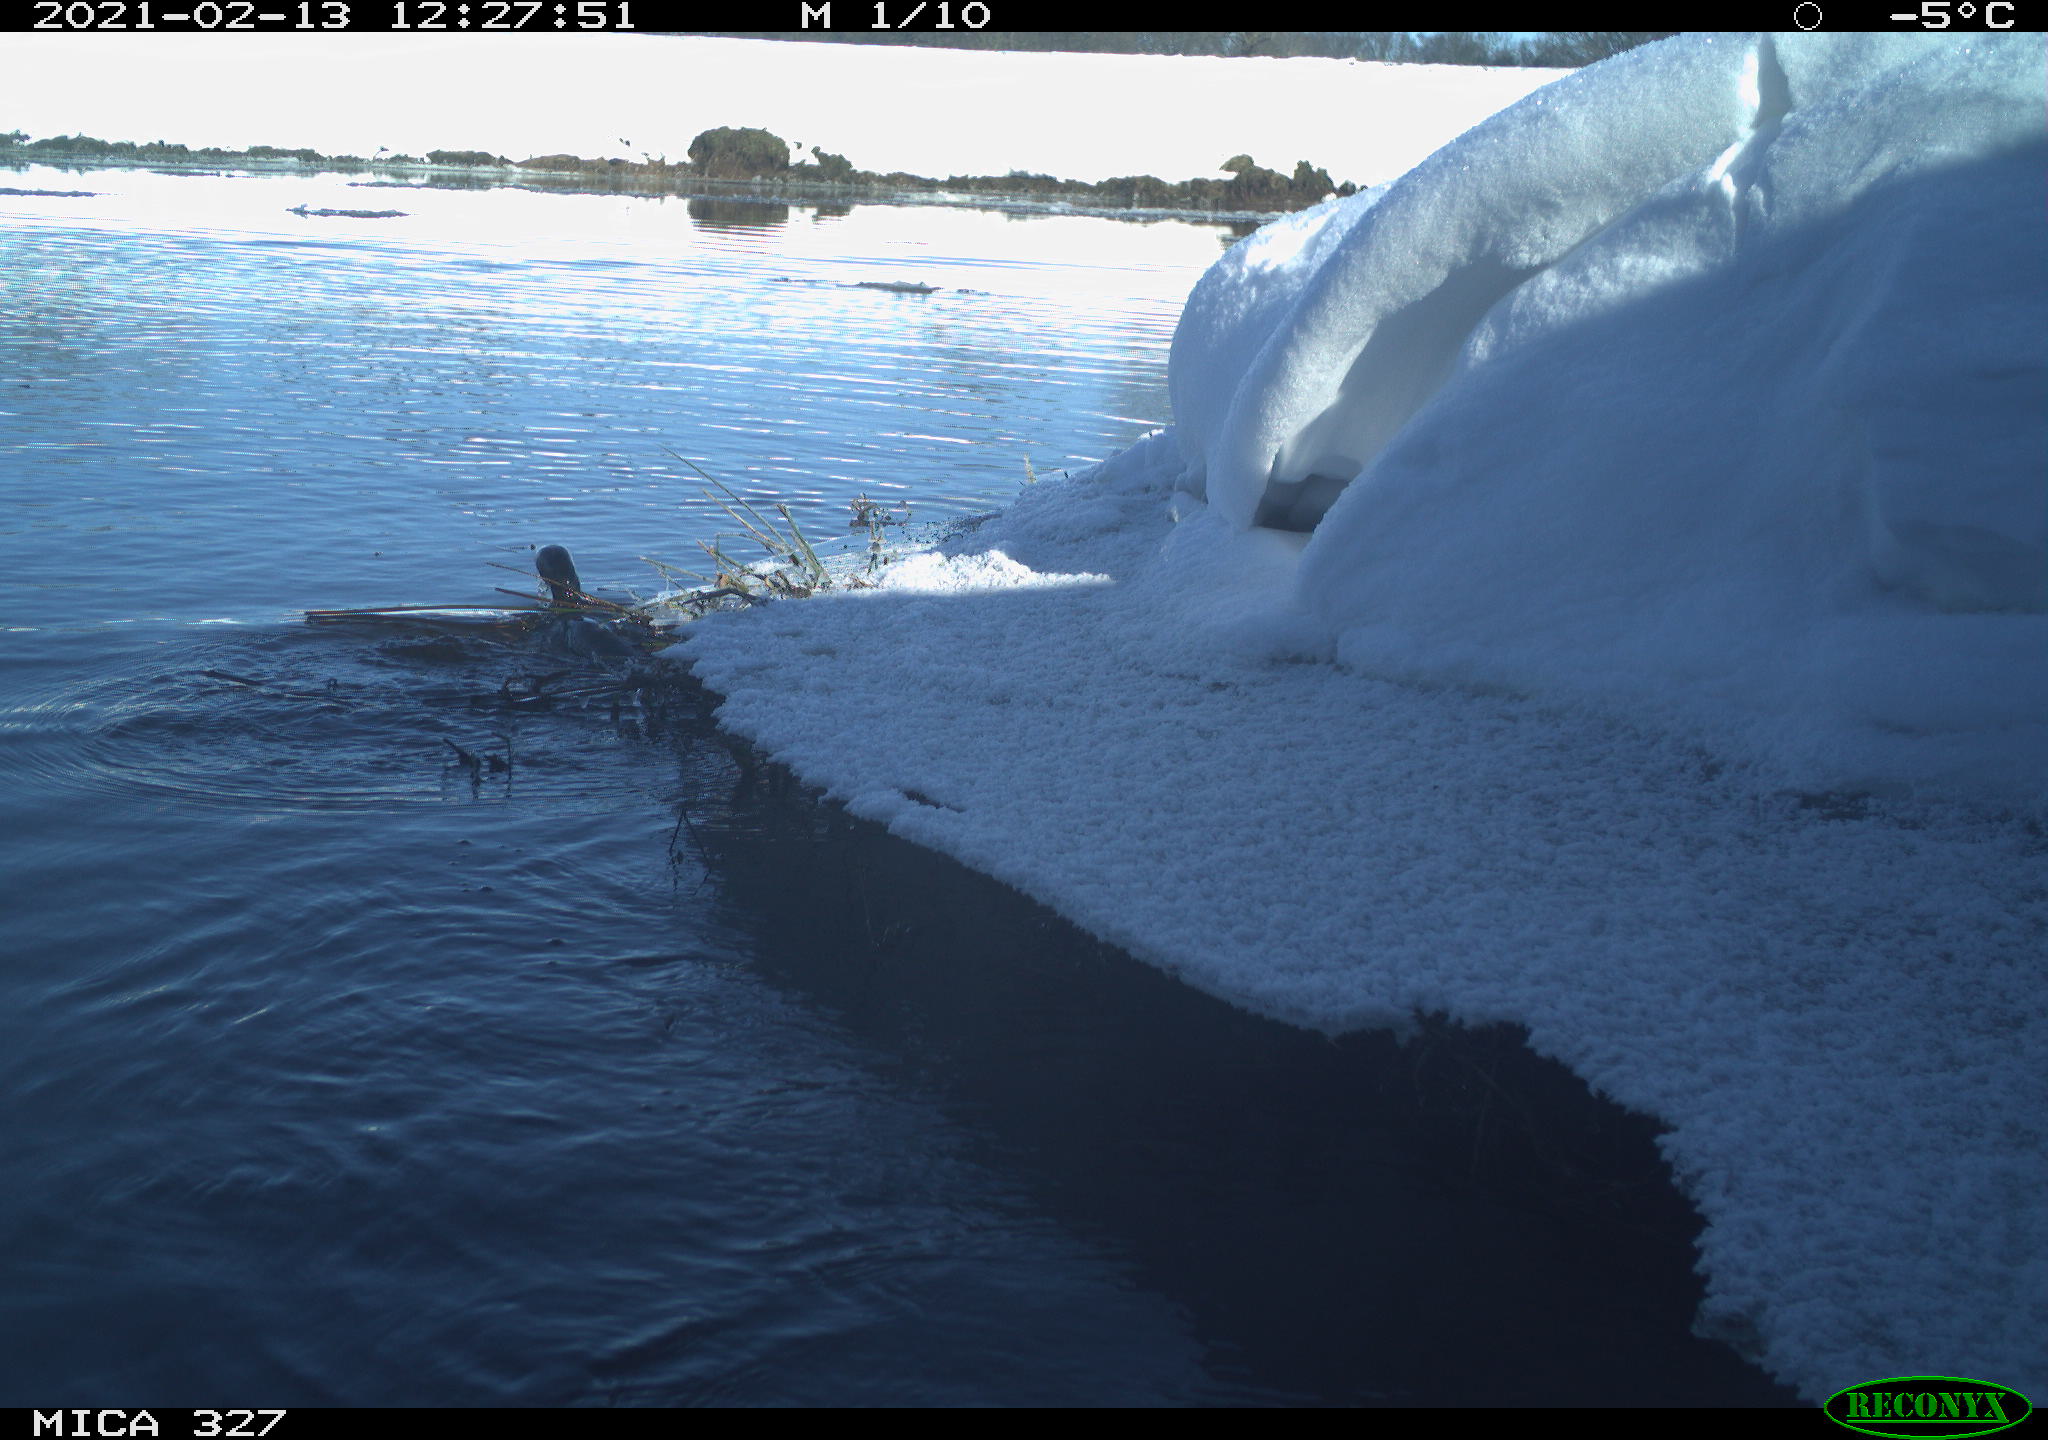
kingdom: Animalia
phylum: Chordata
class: Aves
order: Anseriformes
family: Anatidae
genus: Anas
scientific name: Anas platyrhynchos
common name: Mallard
